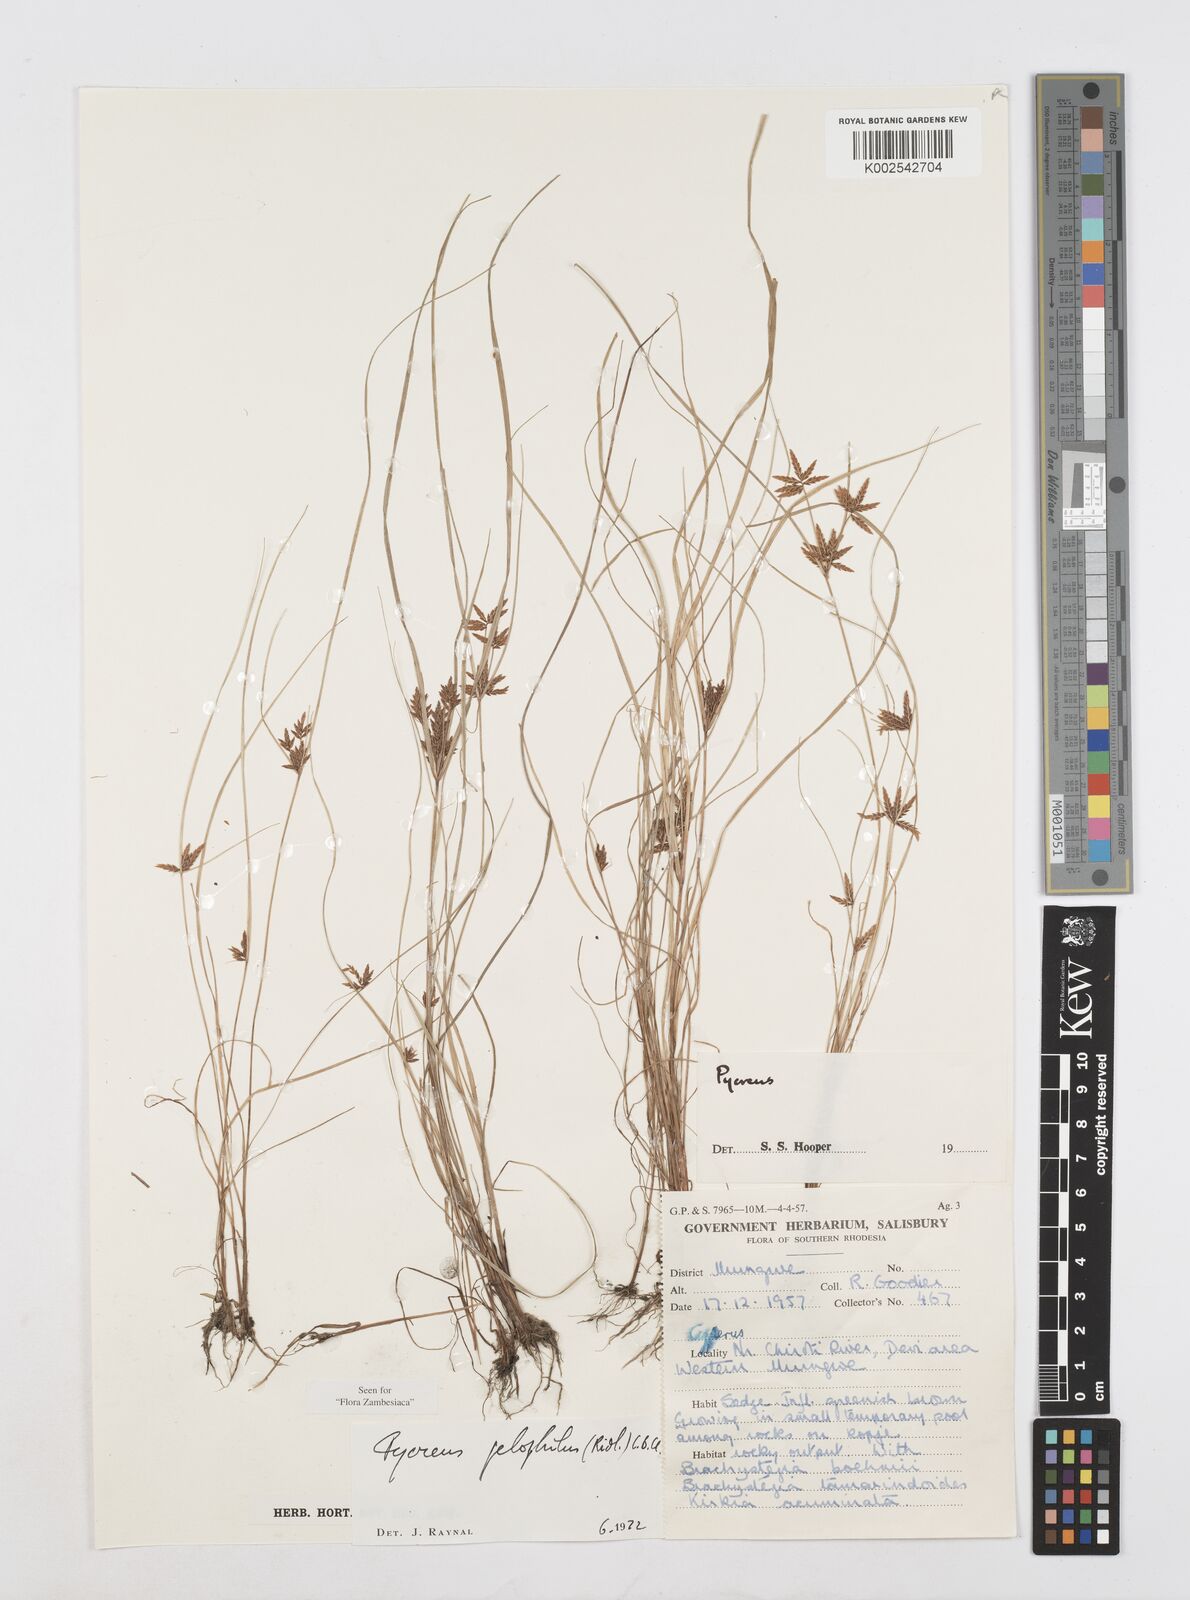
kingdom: Plantae
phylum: Tracheophyta
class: Liliopsida
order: Poales
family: Cyperaceae
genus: Cyperus
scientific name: Cyperus pelophilus
